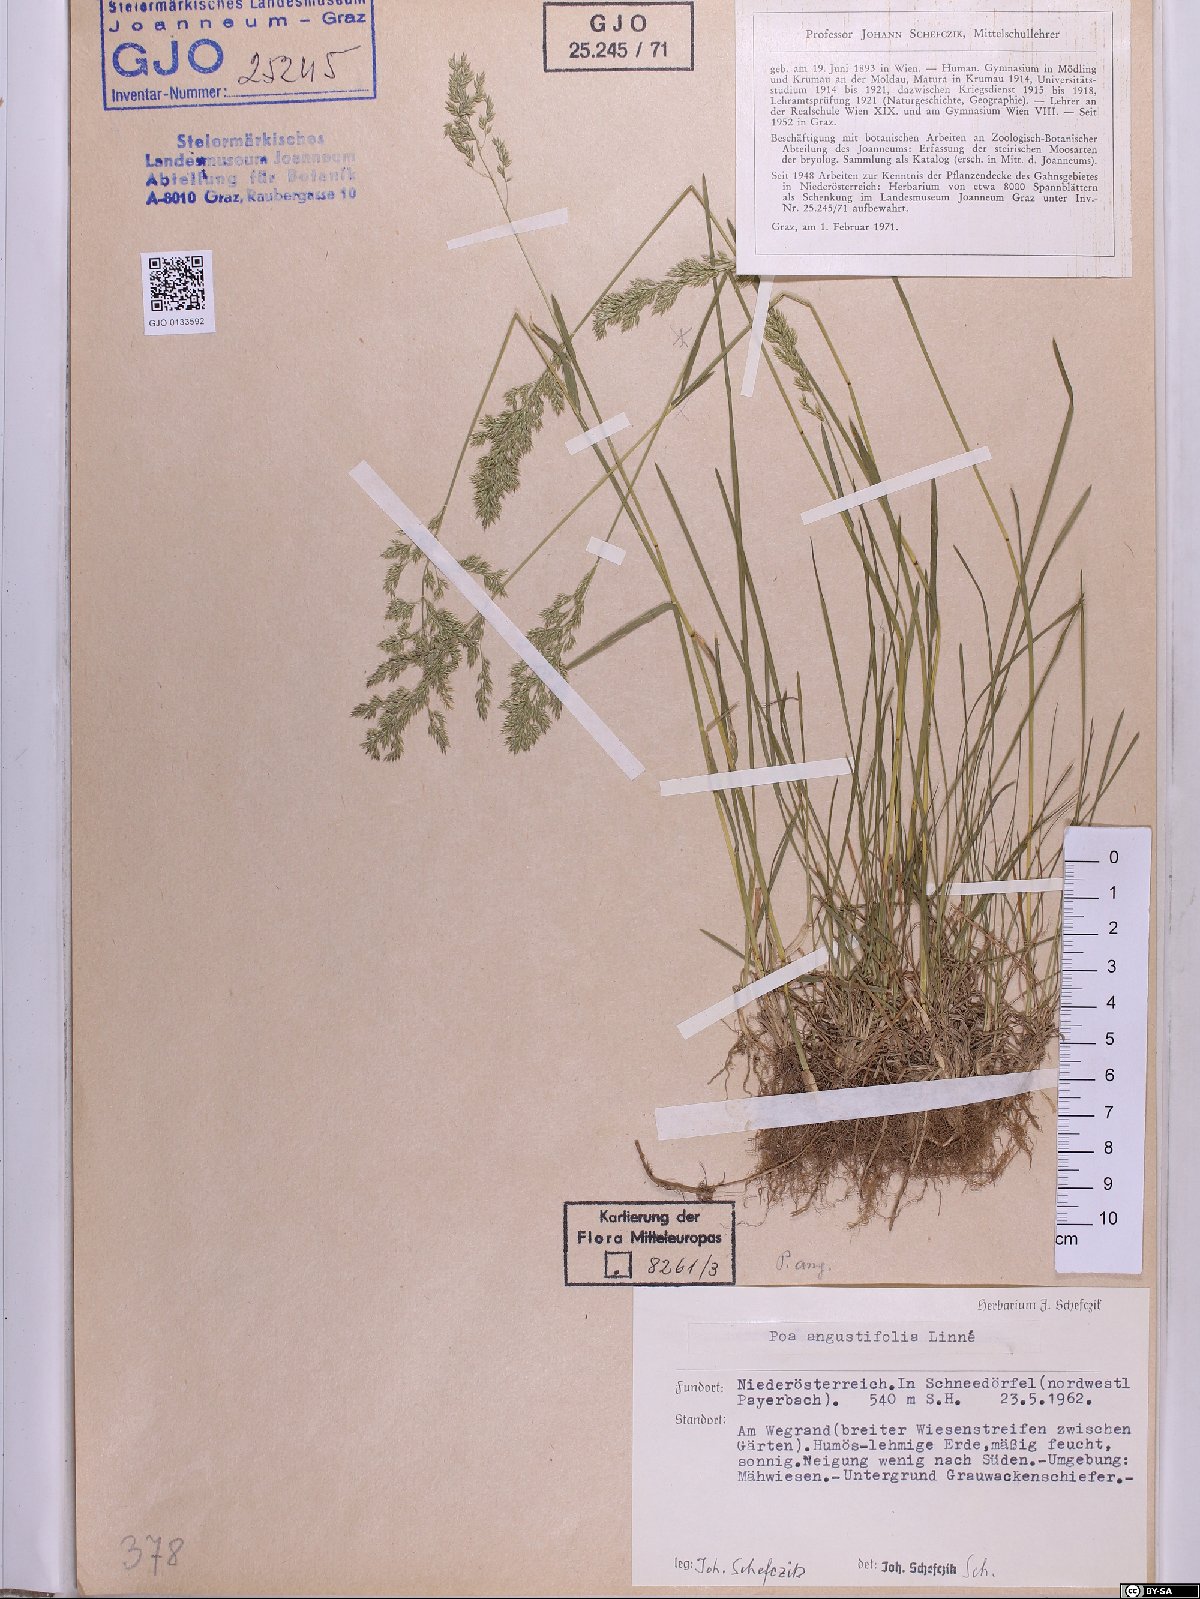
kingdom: Plantae
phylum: Tracheophyta
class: Liliopsida
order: Poales
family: Poaceae
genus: Poa
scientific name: Poa angustifolia
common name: Narrow-leaved meadow-grass
